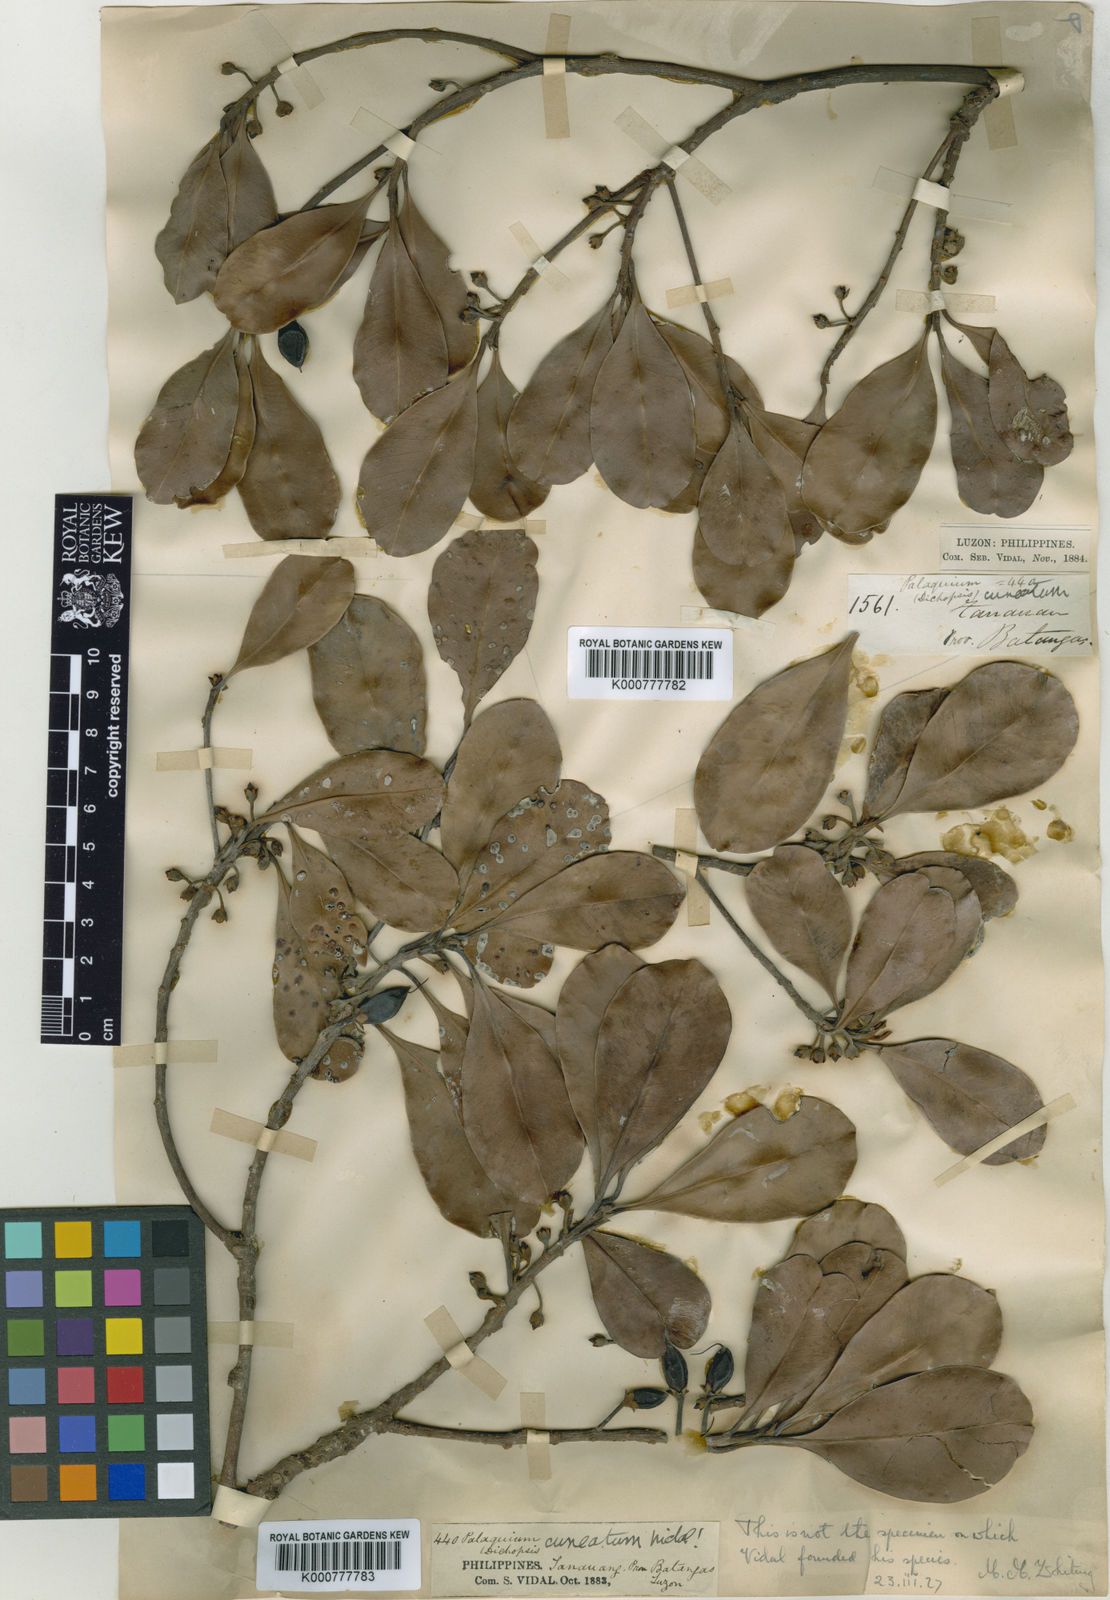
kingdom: Plantae
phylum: Tracheophyta
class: Magnoliopsida
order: Ericales
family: Sapotaceae
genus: Palaquium
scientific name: Palaquium heterosepalum
